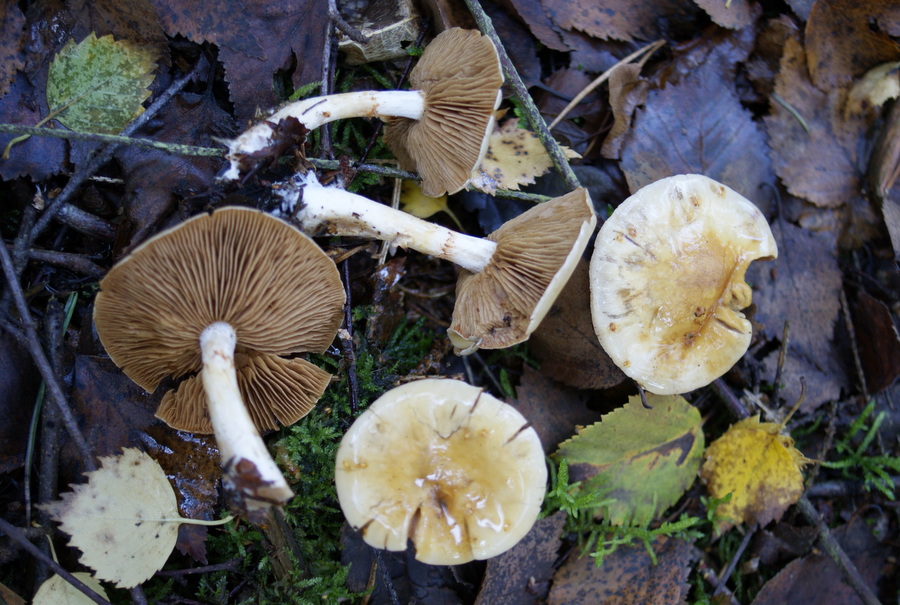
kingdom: Fungi
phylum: Basidiomycota
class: Agaricomycetes
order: Agaricales
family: Cortinariaceae
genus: Cortinarius
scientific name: Cortinarius illibatus
